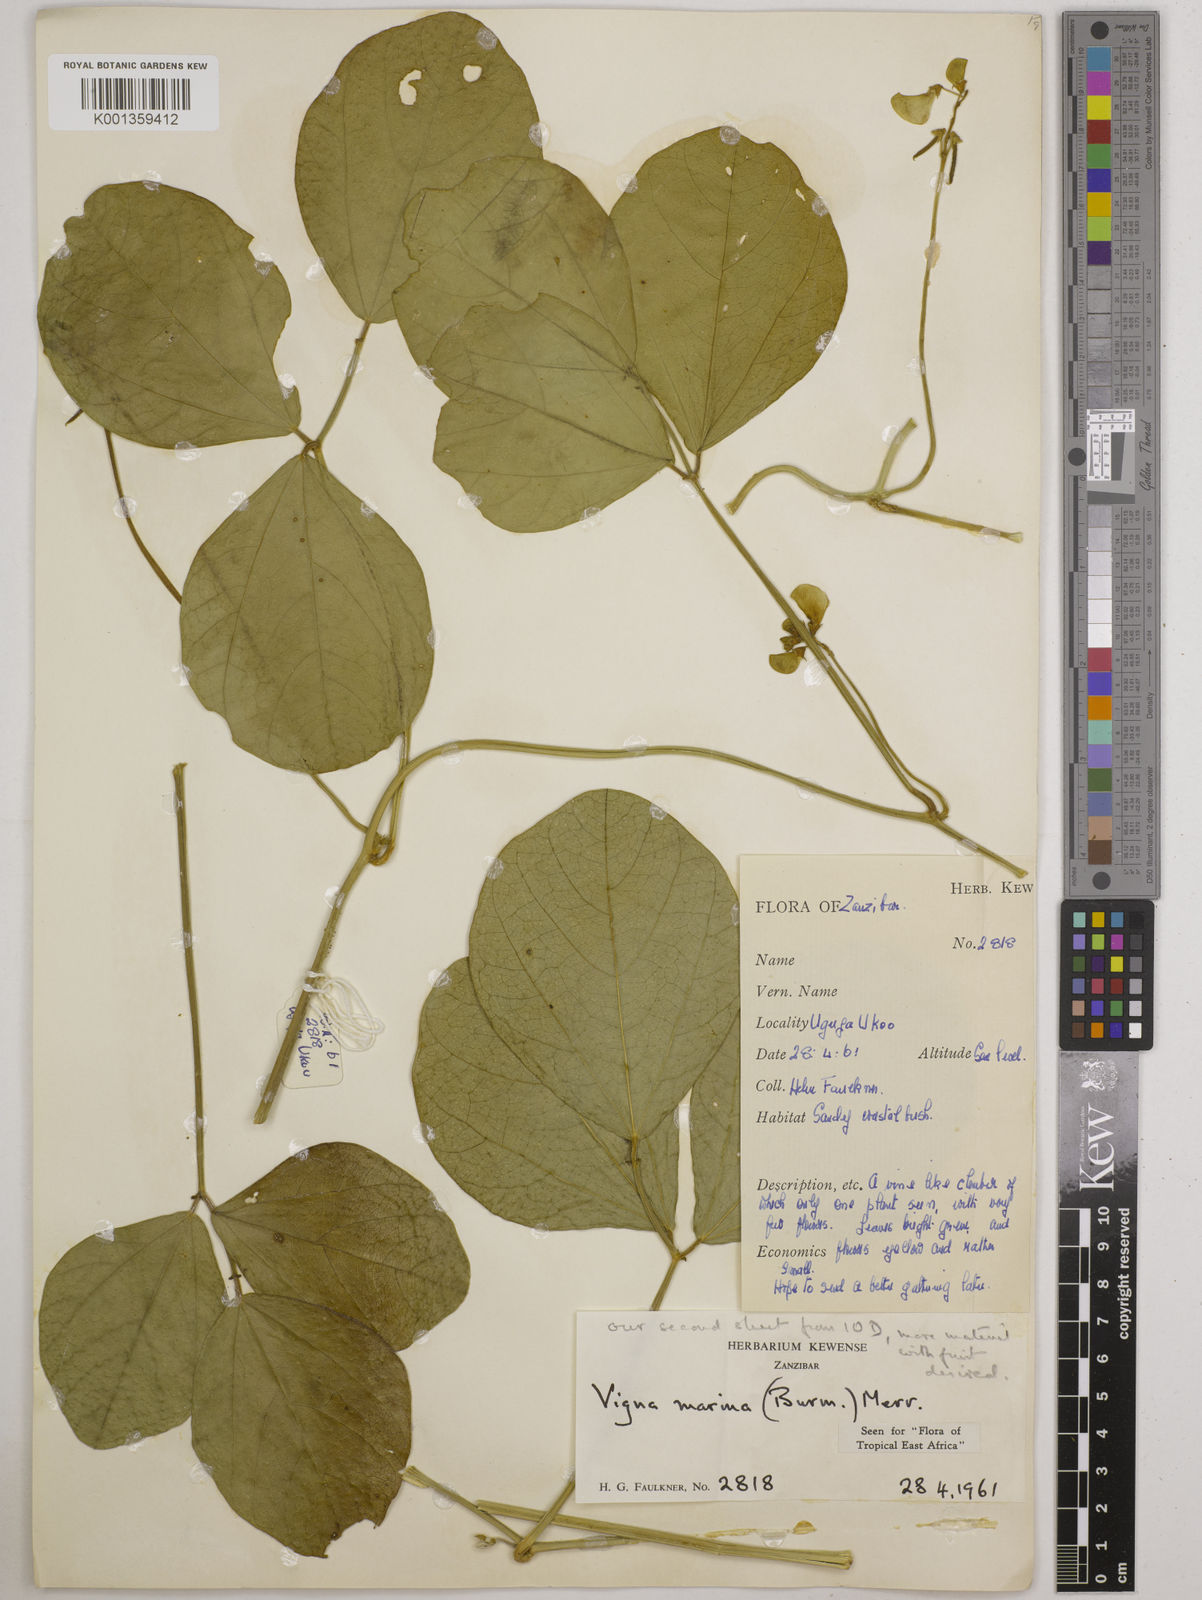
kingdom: Plantae
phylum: Tracheophyta
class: Magnoliopsida
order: Fabales
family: Fabaceae
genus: Vigna
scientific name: Vigna marina
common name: Dune-bean
